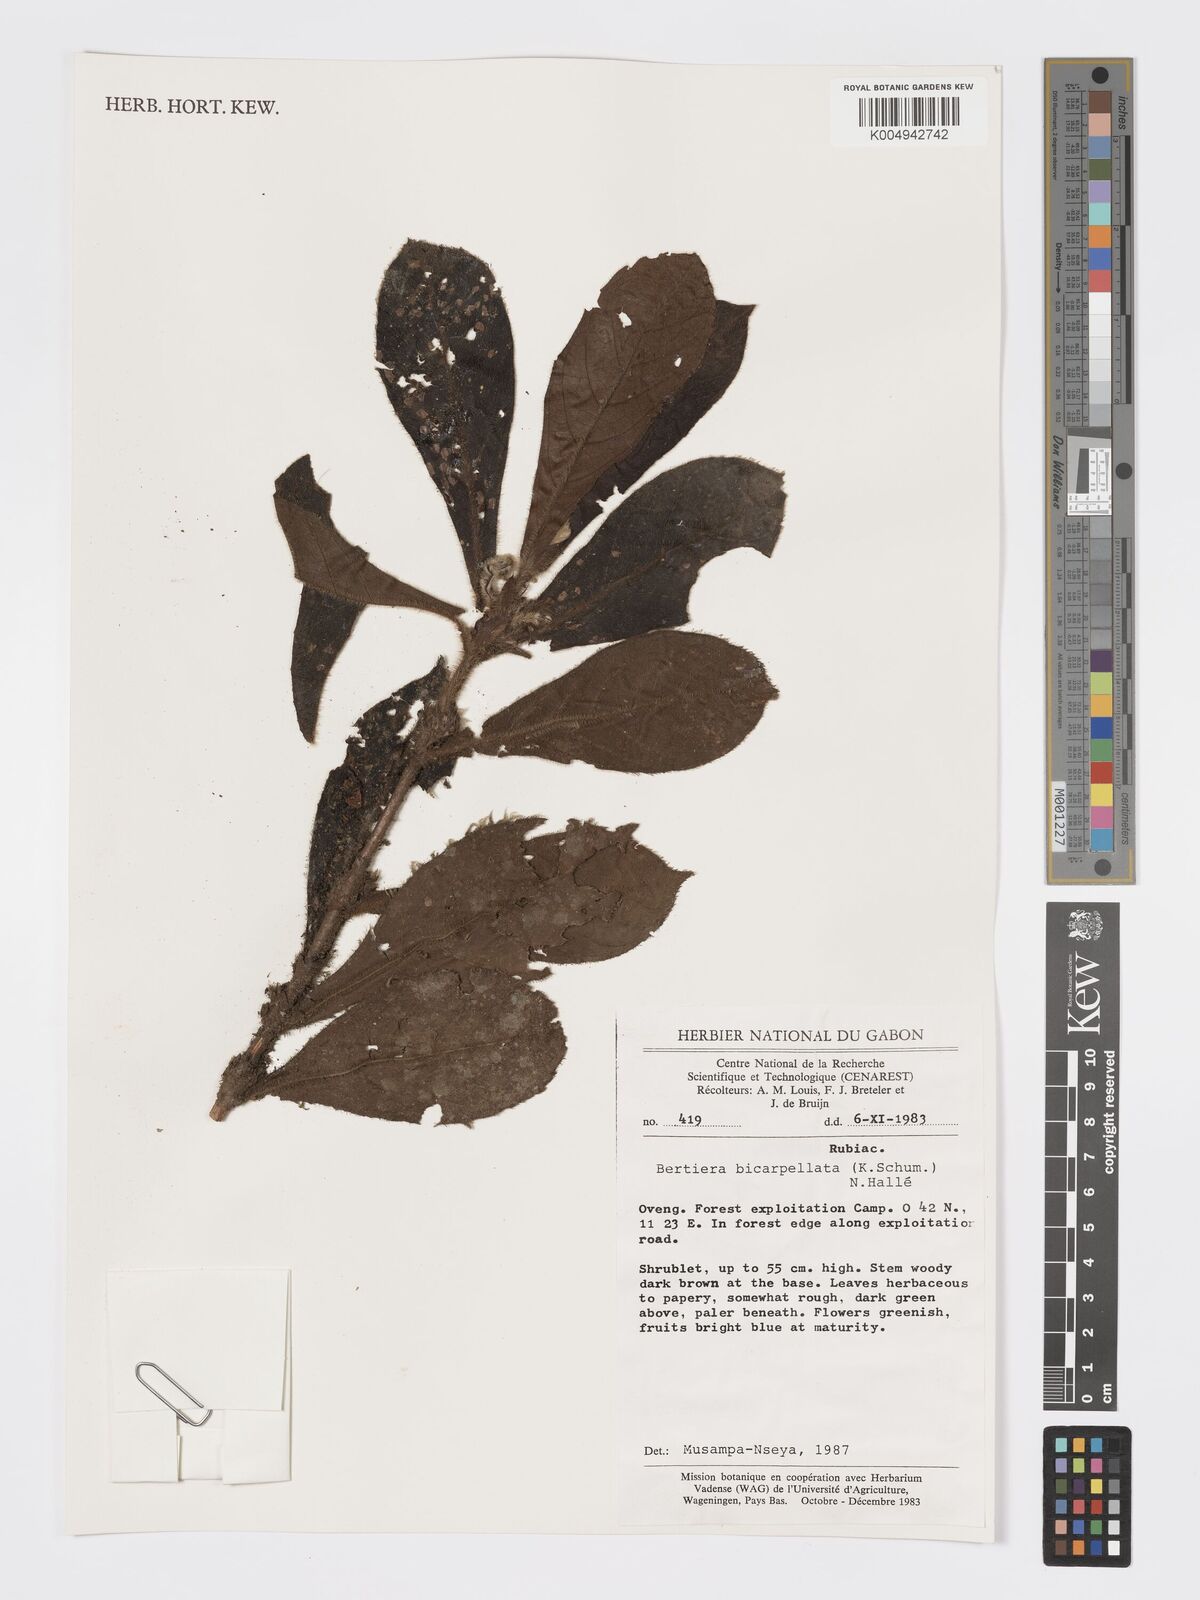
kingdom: Plantae
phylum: Tracheophyta
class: Magnoliopsida
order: Gentianales
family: Rubiaceae
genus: Bertiera
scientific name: Bertiera bicarpellata
